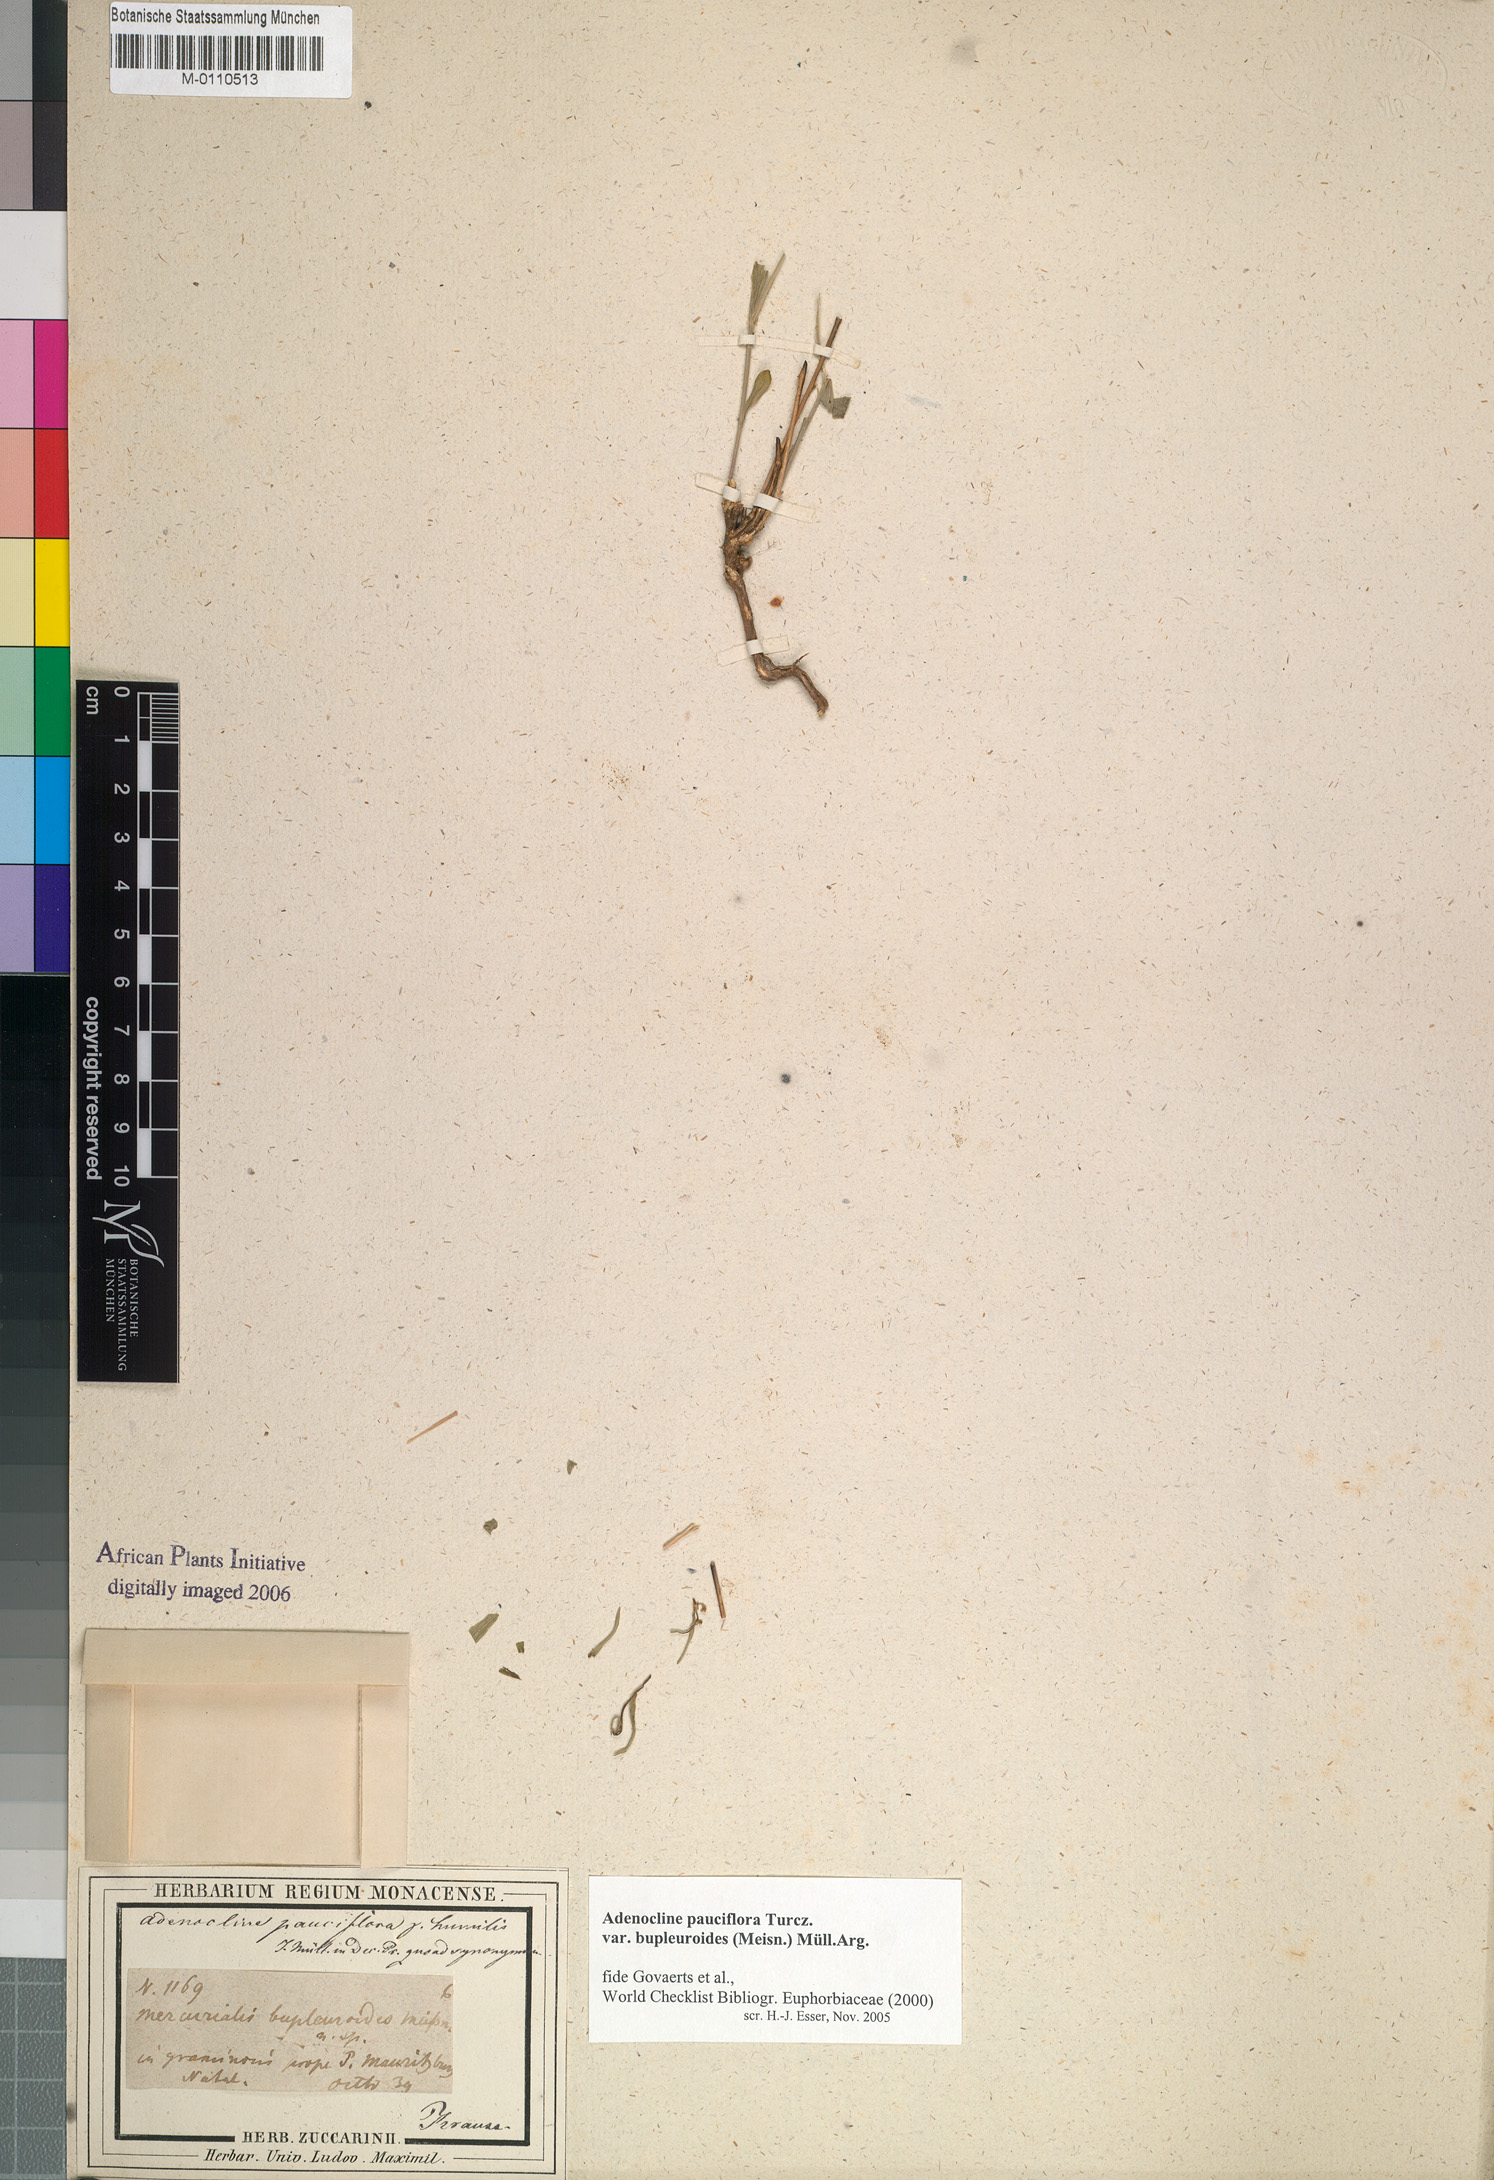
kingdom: Plantae
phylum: Tracheophyta
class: Magnoliopsida
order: Malpighiales
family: Euphorbiaceae
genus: Adenocline
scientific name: Adenocline pauciflora
